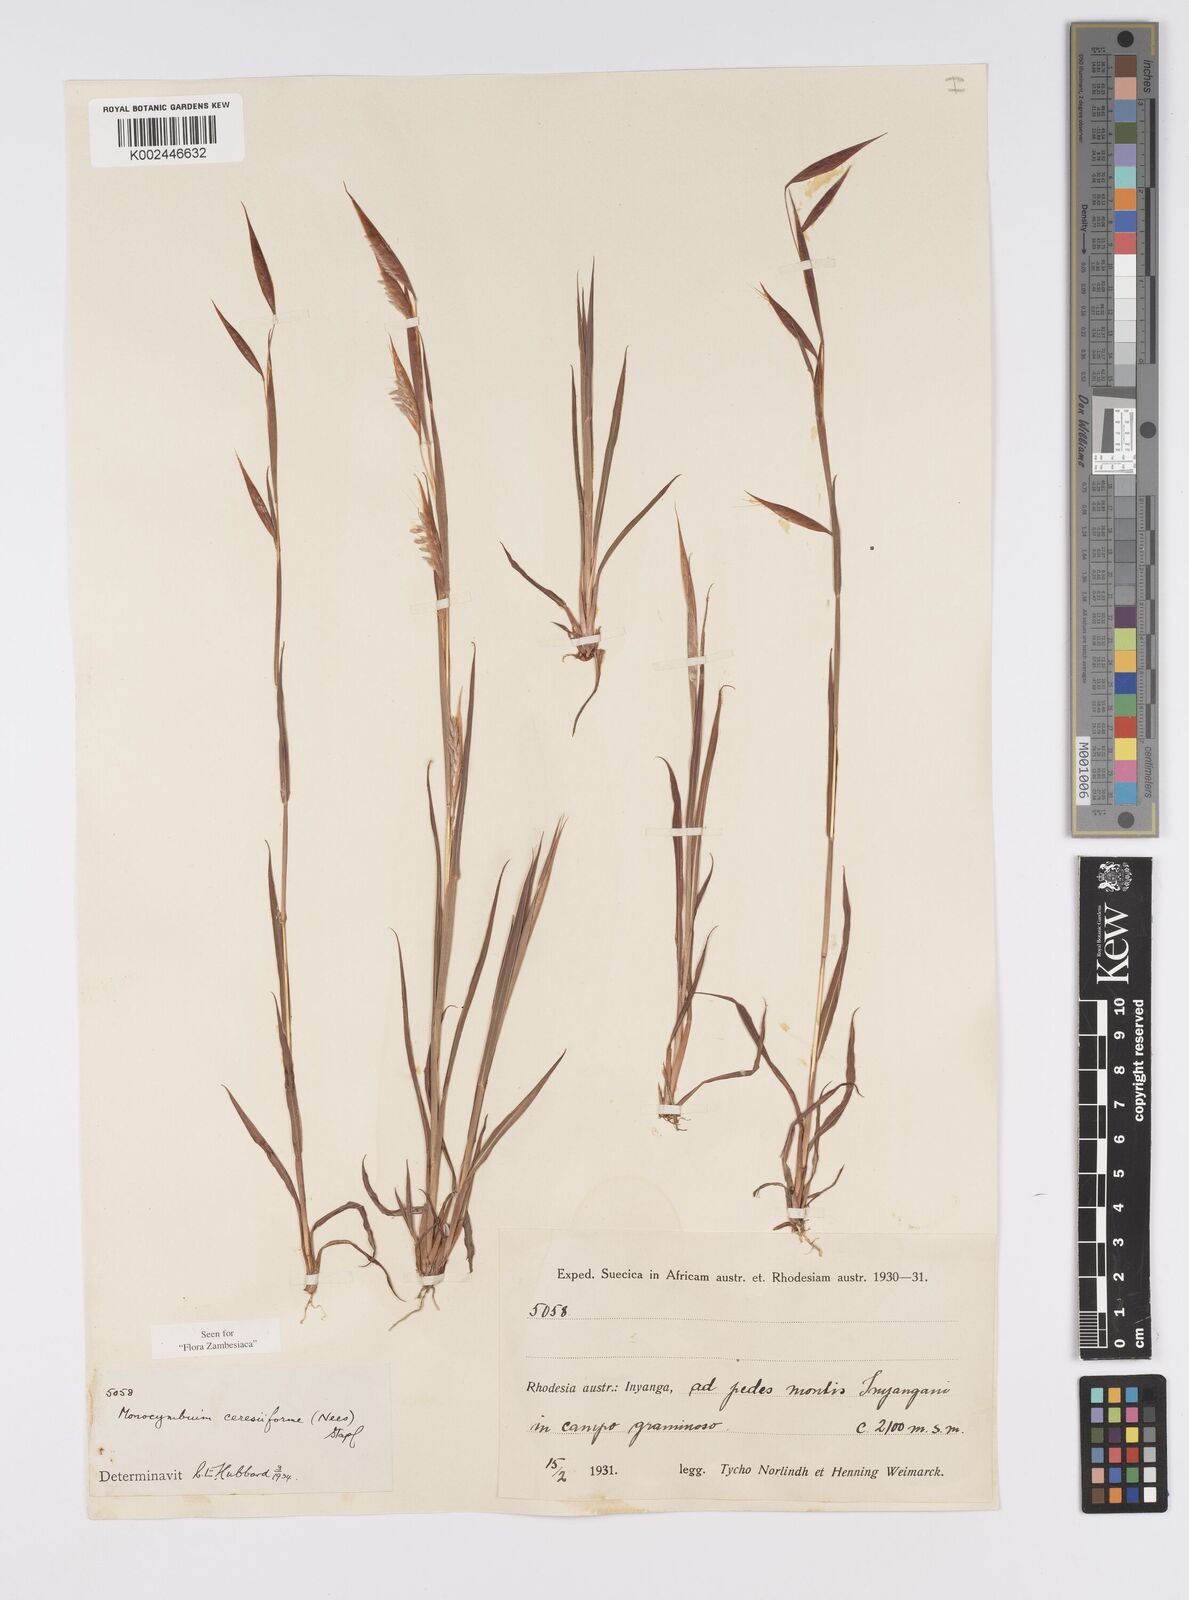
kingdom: Plantae
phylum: Tracheophyta
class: Liliopsida
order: Poales
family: Poaceae
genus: Monocymbium
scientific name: Monocymbium ceresiiforme
